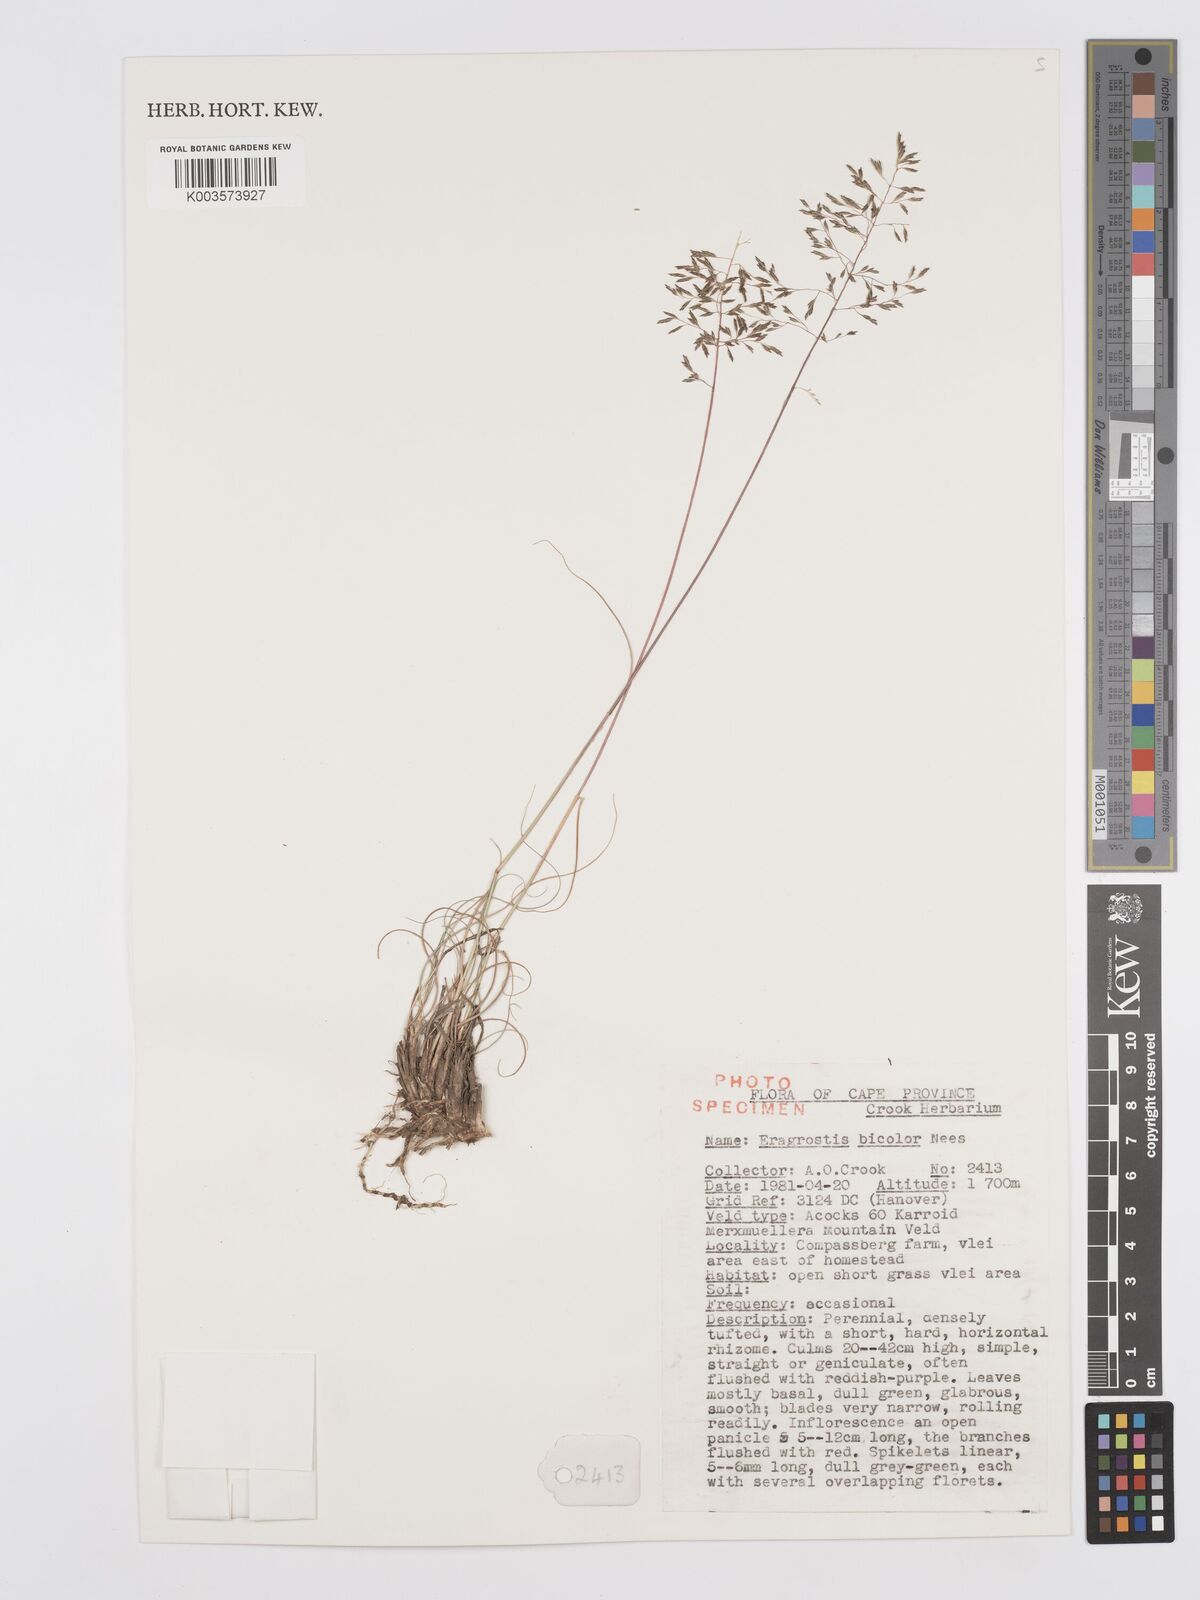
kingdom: Plantae
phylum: Tracheophyta
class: Liliopsida
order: Poales
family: Poaceae
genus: Eragrostis
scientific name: Eragrostis
